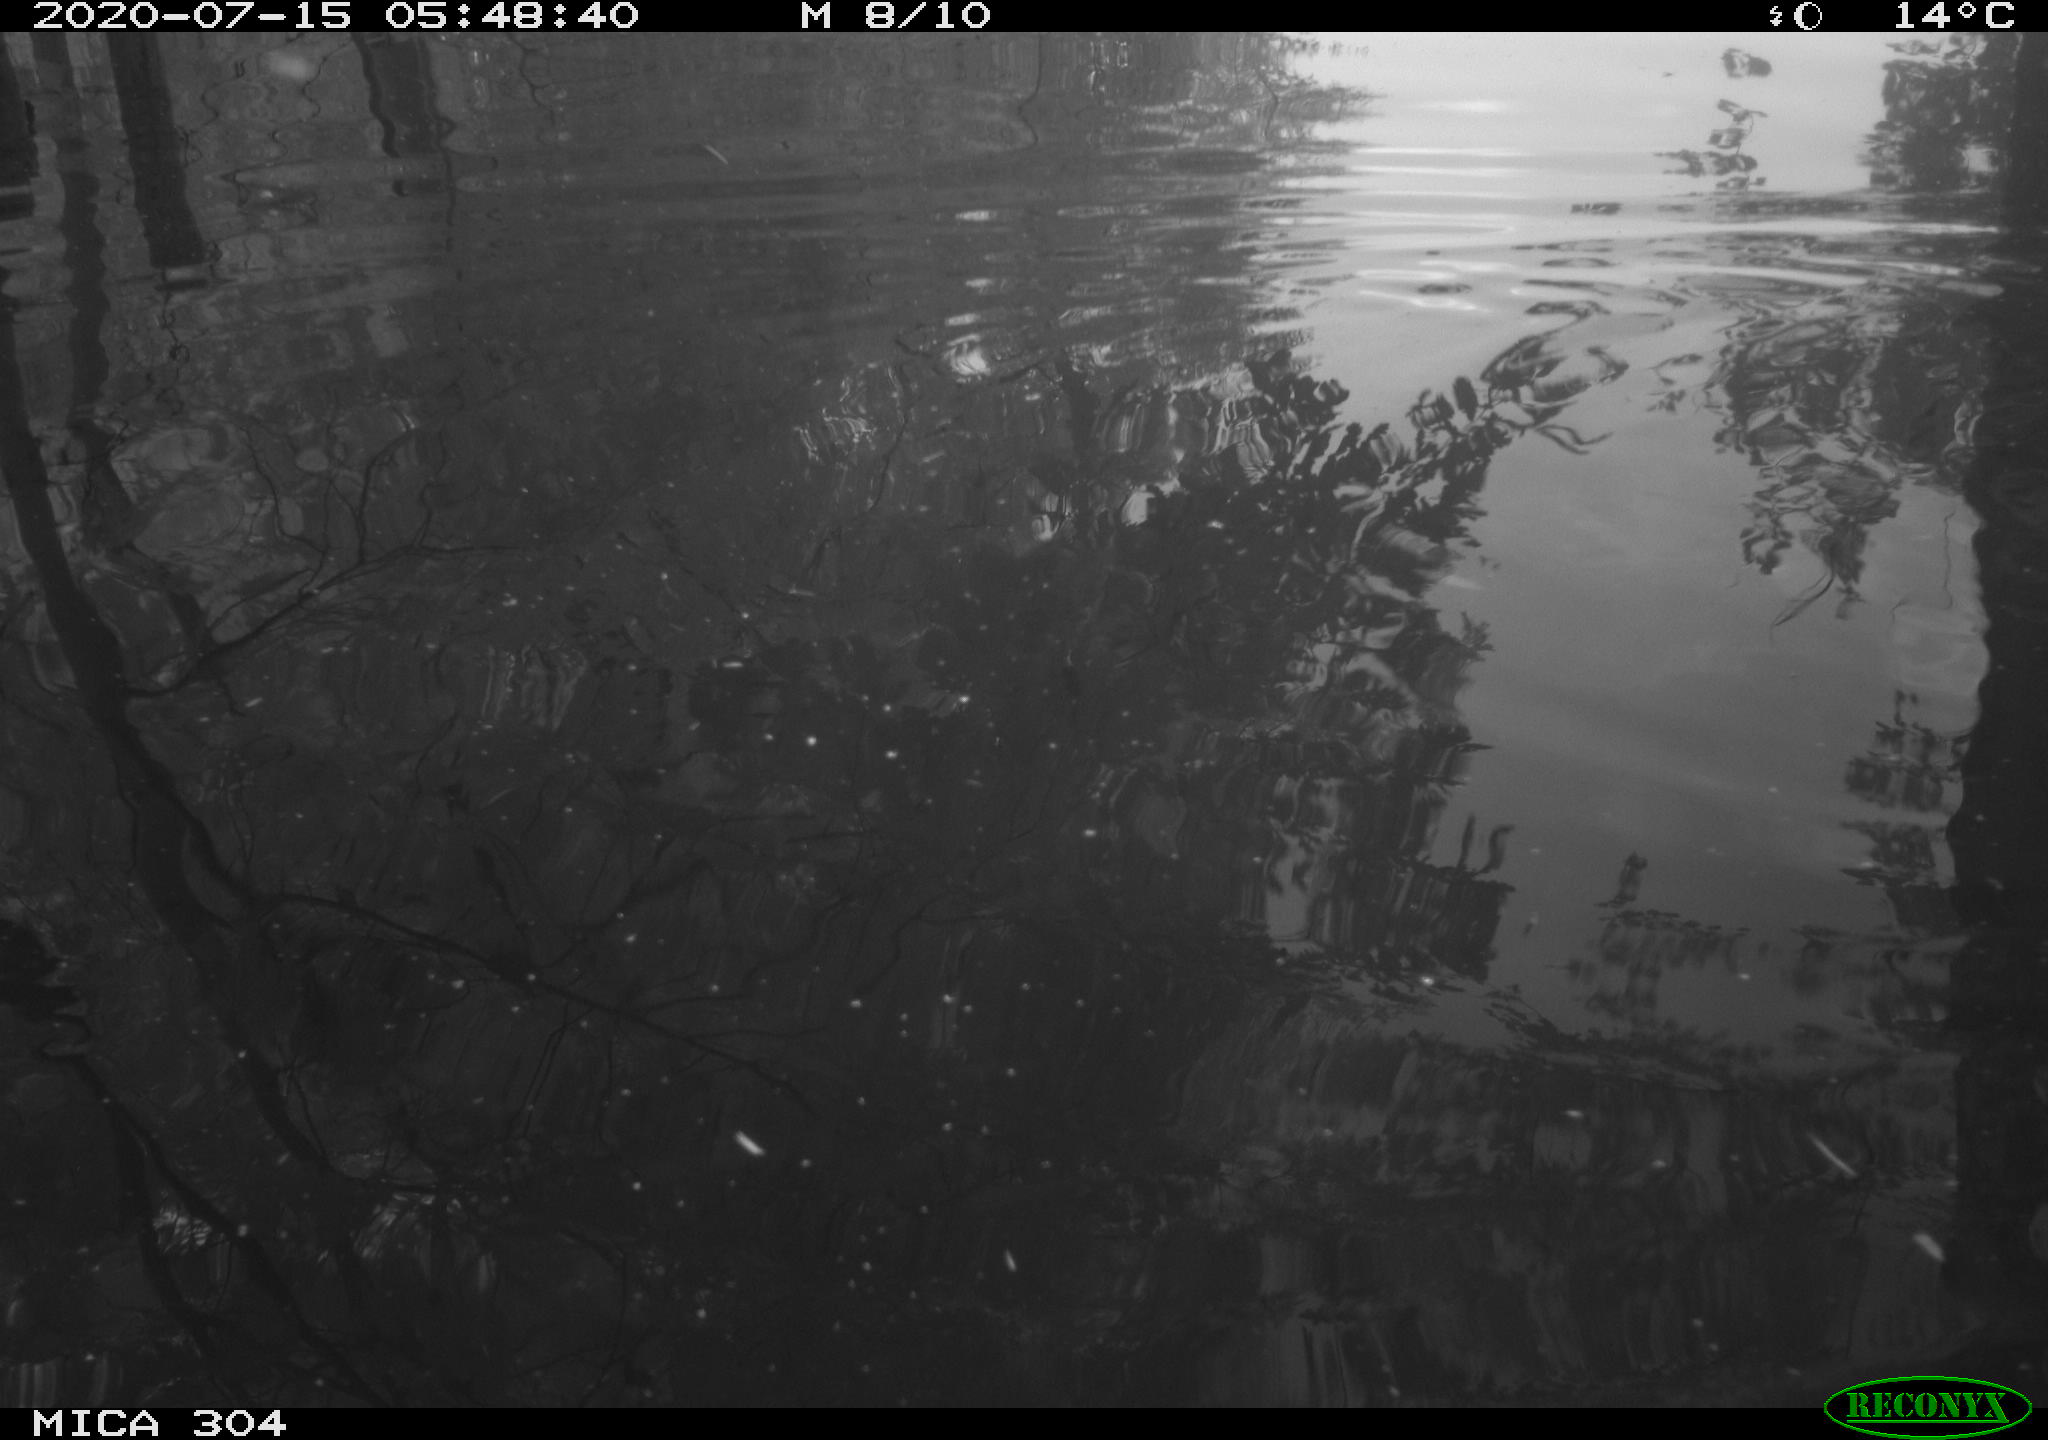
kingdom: Animalia
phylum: Chordata
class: Aves
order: Gruiformes
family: Rallidae
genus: Fulica
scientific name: Fulica atra
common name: Eurasian coot
